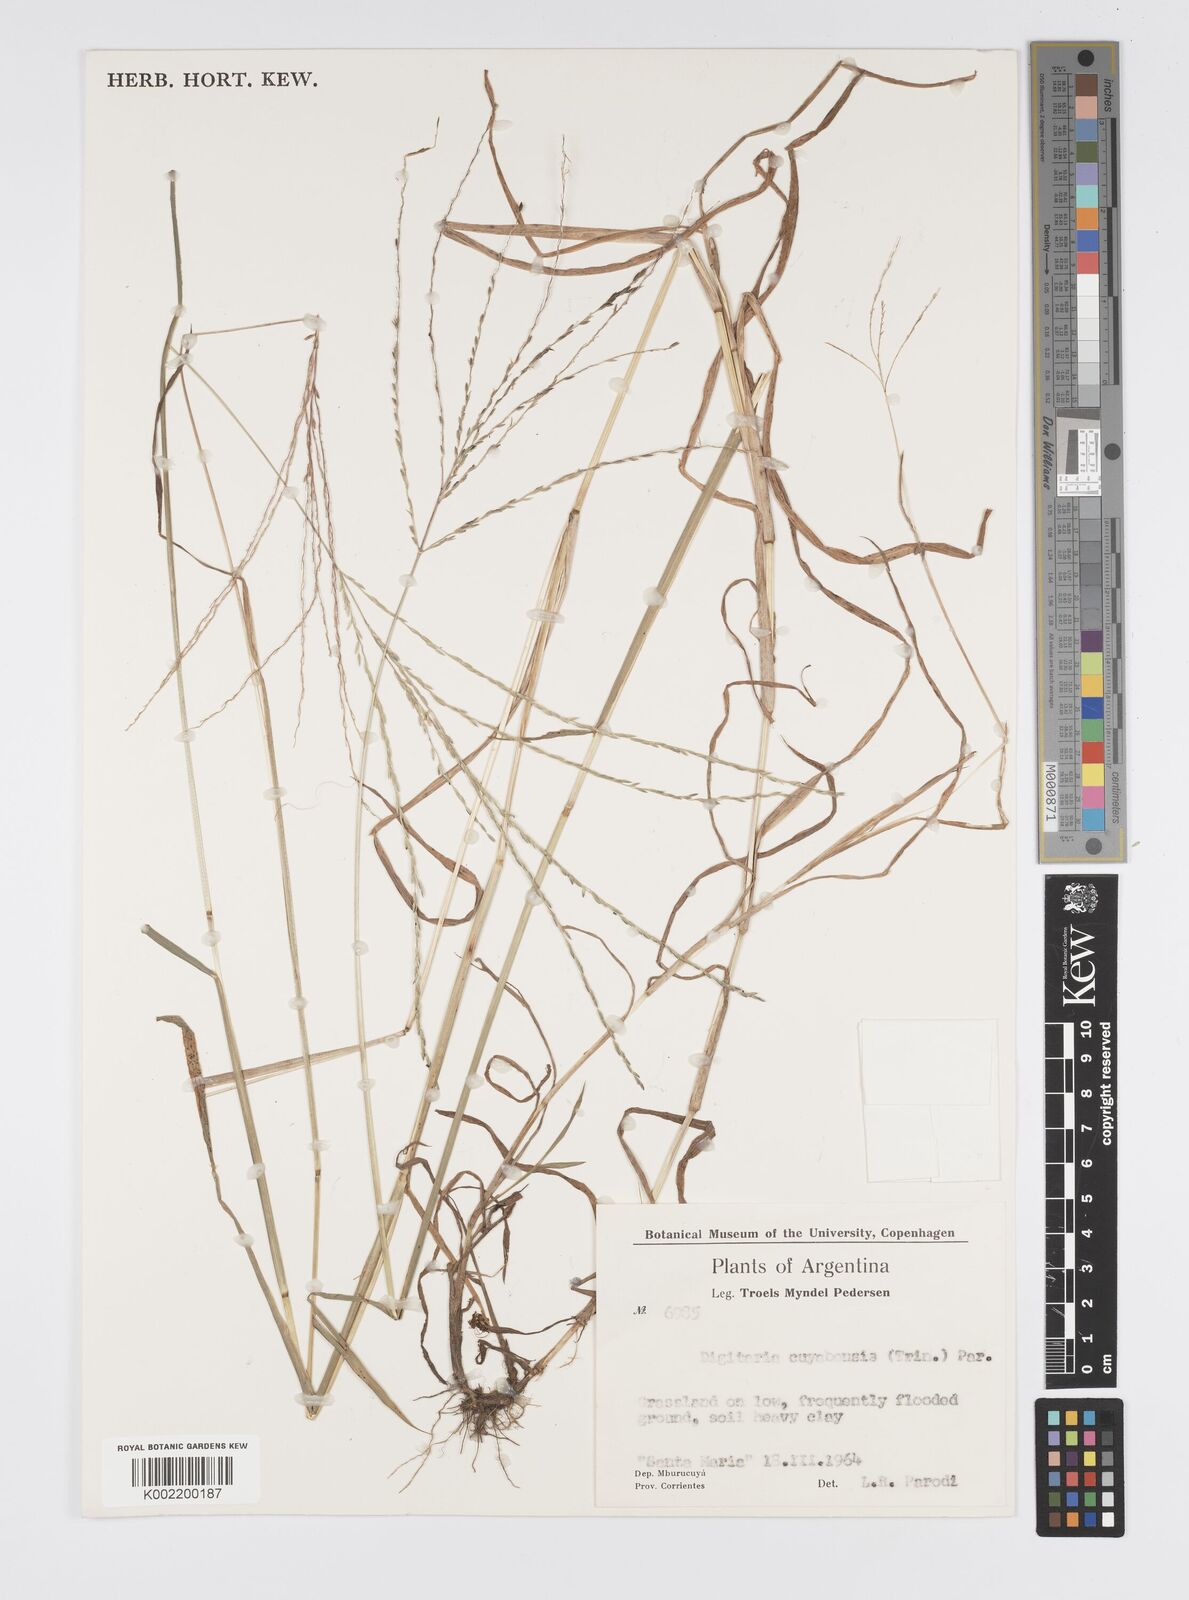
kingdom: Plantae
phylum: Tracheophyta
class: Liliopsida
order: Poales
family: Poaceae
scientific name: Poaceae
